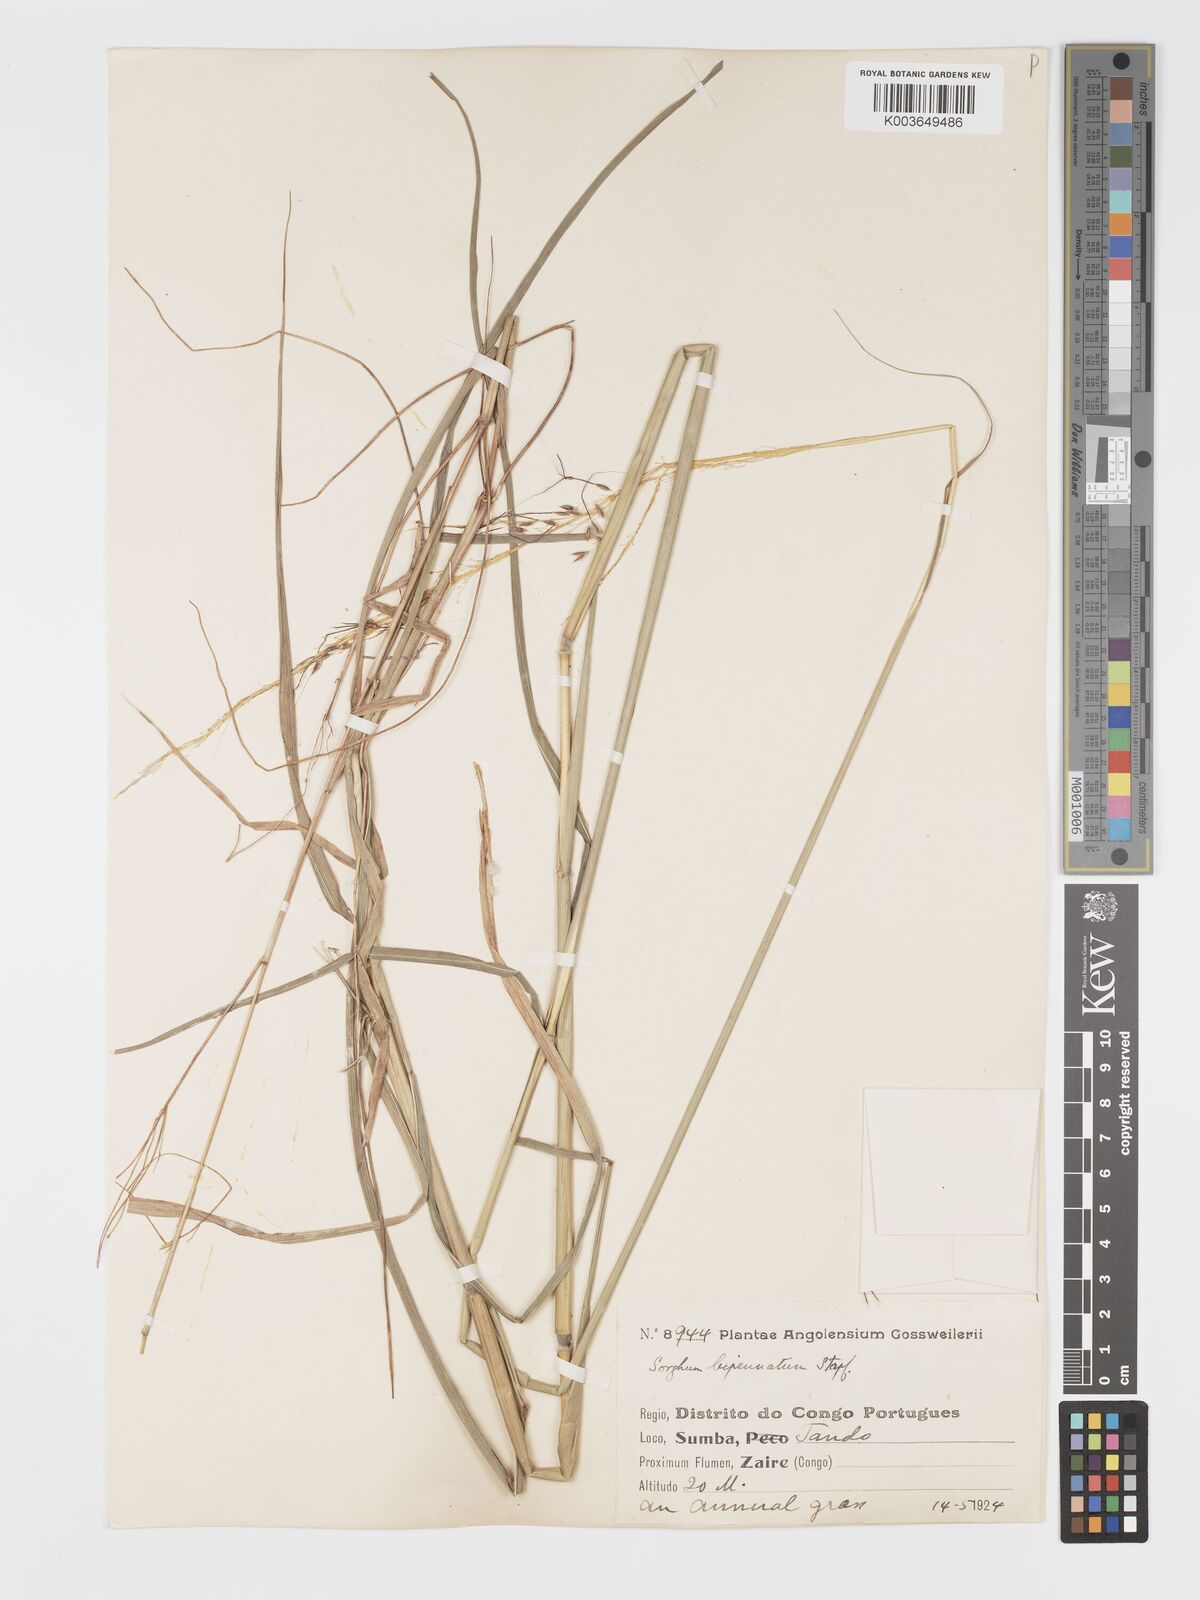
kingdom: Plantae
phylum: Tracheophyta
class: Liliopsida
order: Poales
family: Poaceae
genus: Sorghastrum
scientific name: Sorghastrum incompletum
